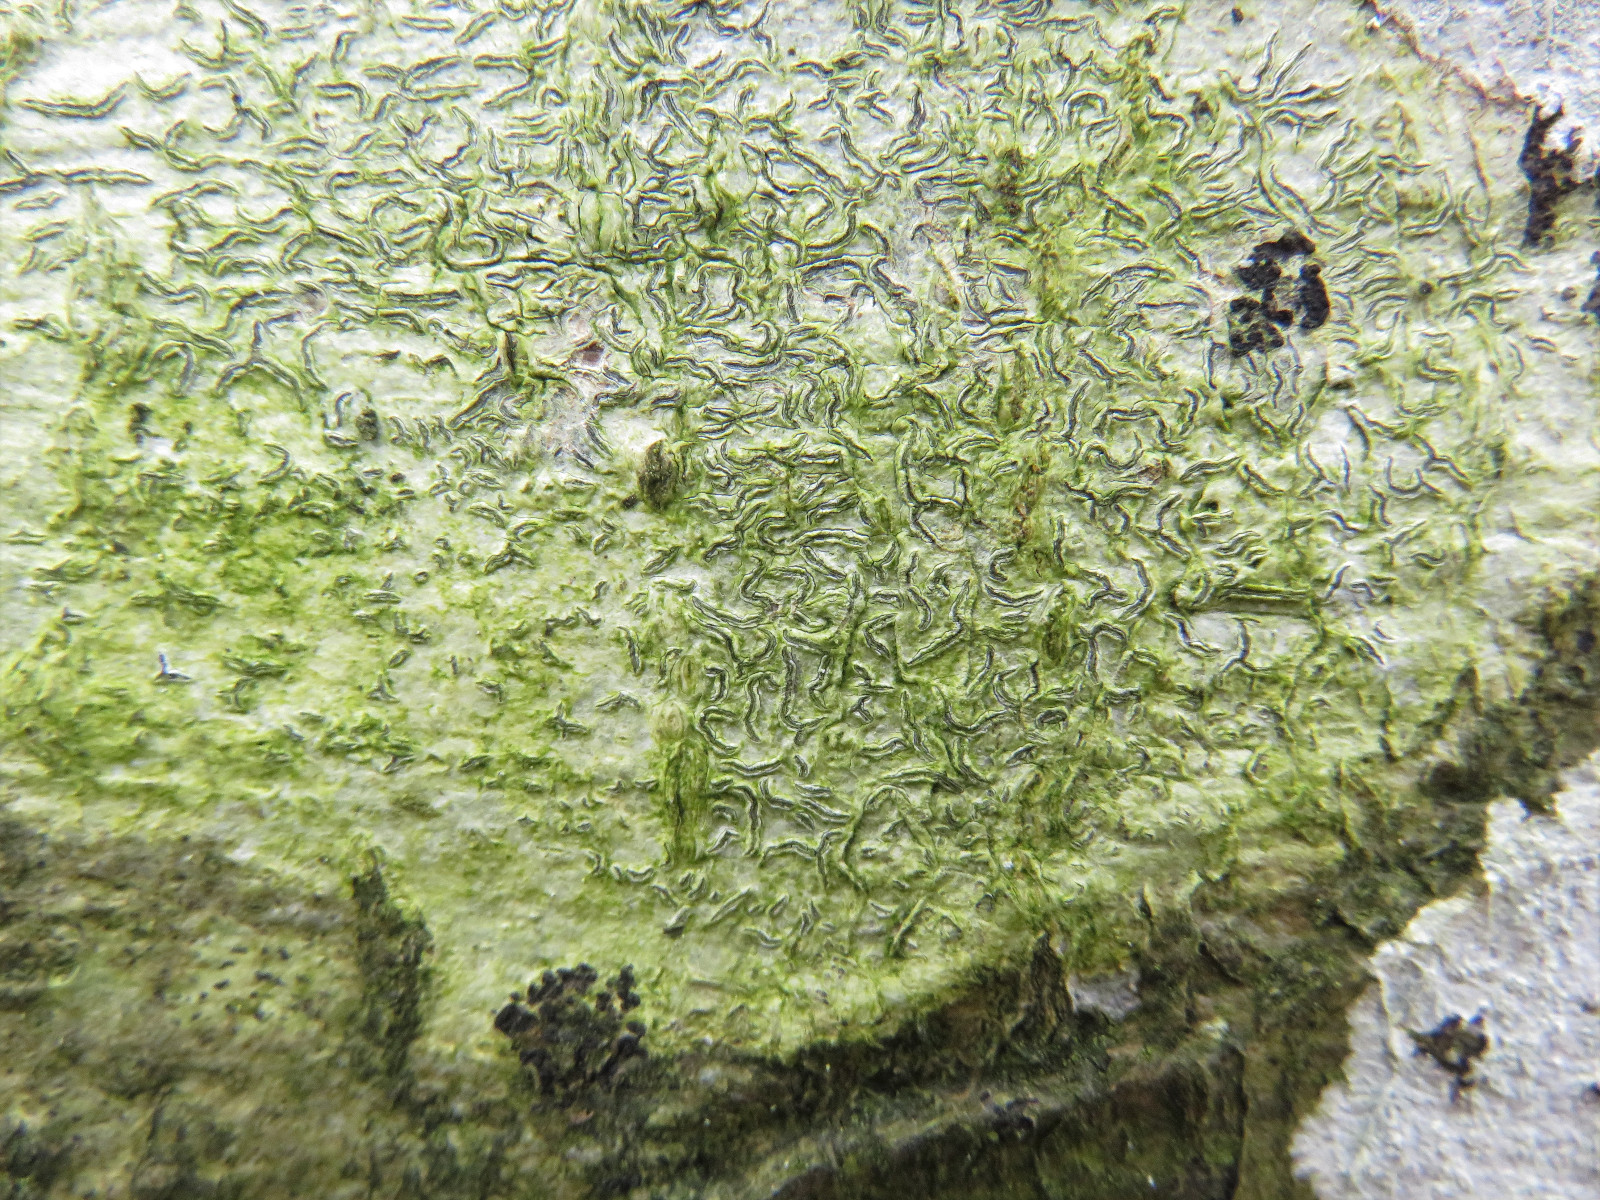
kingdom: Fungi
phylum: Ascomycota
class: Lecanoromycetes
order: Ostropales
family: Graphidaceae
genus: Graphis
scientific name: Graphis scripta
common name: almindelig skriftlav
